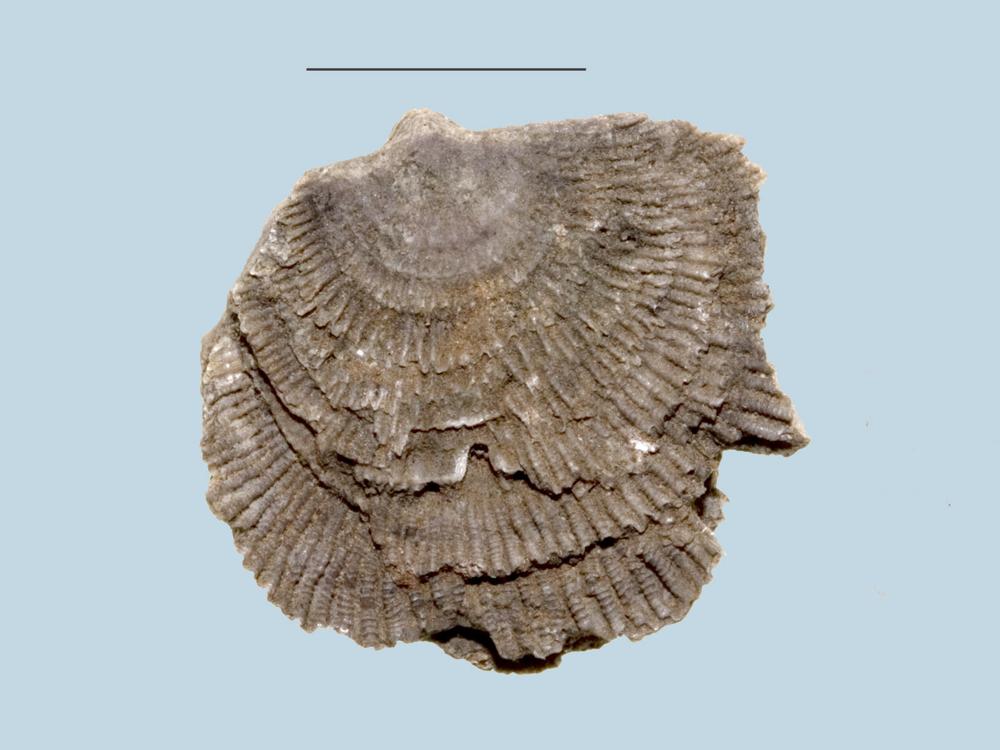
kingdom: Animalia
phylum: Brachiopoda
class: Rhynchonellata
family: Clitambonitidae
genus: Clitambonites
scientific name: Clitambonites Orthisina schmidti
